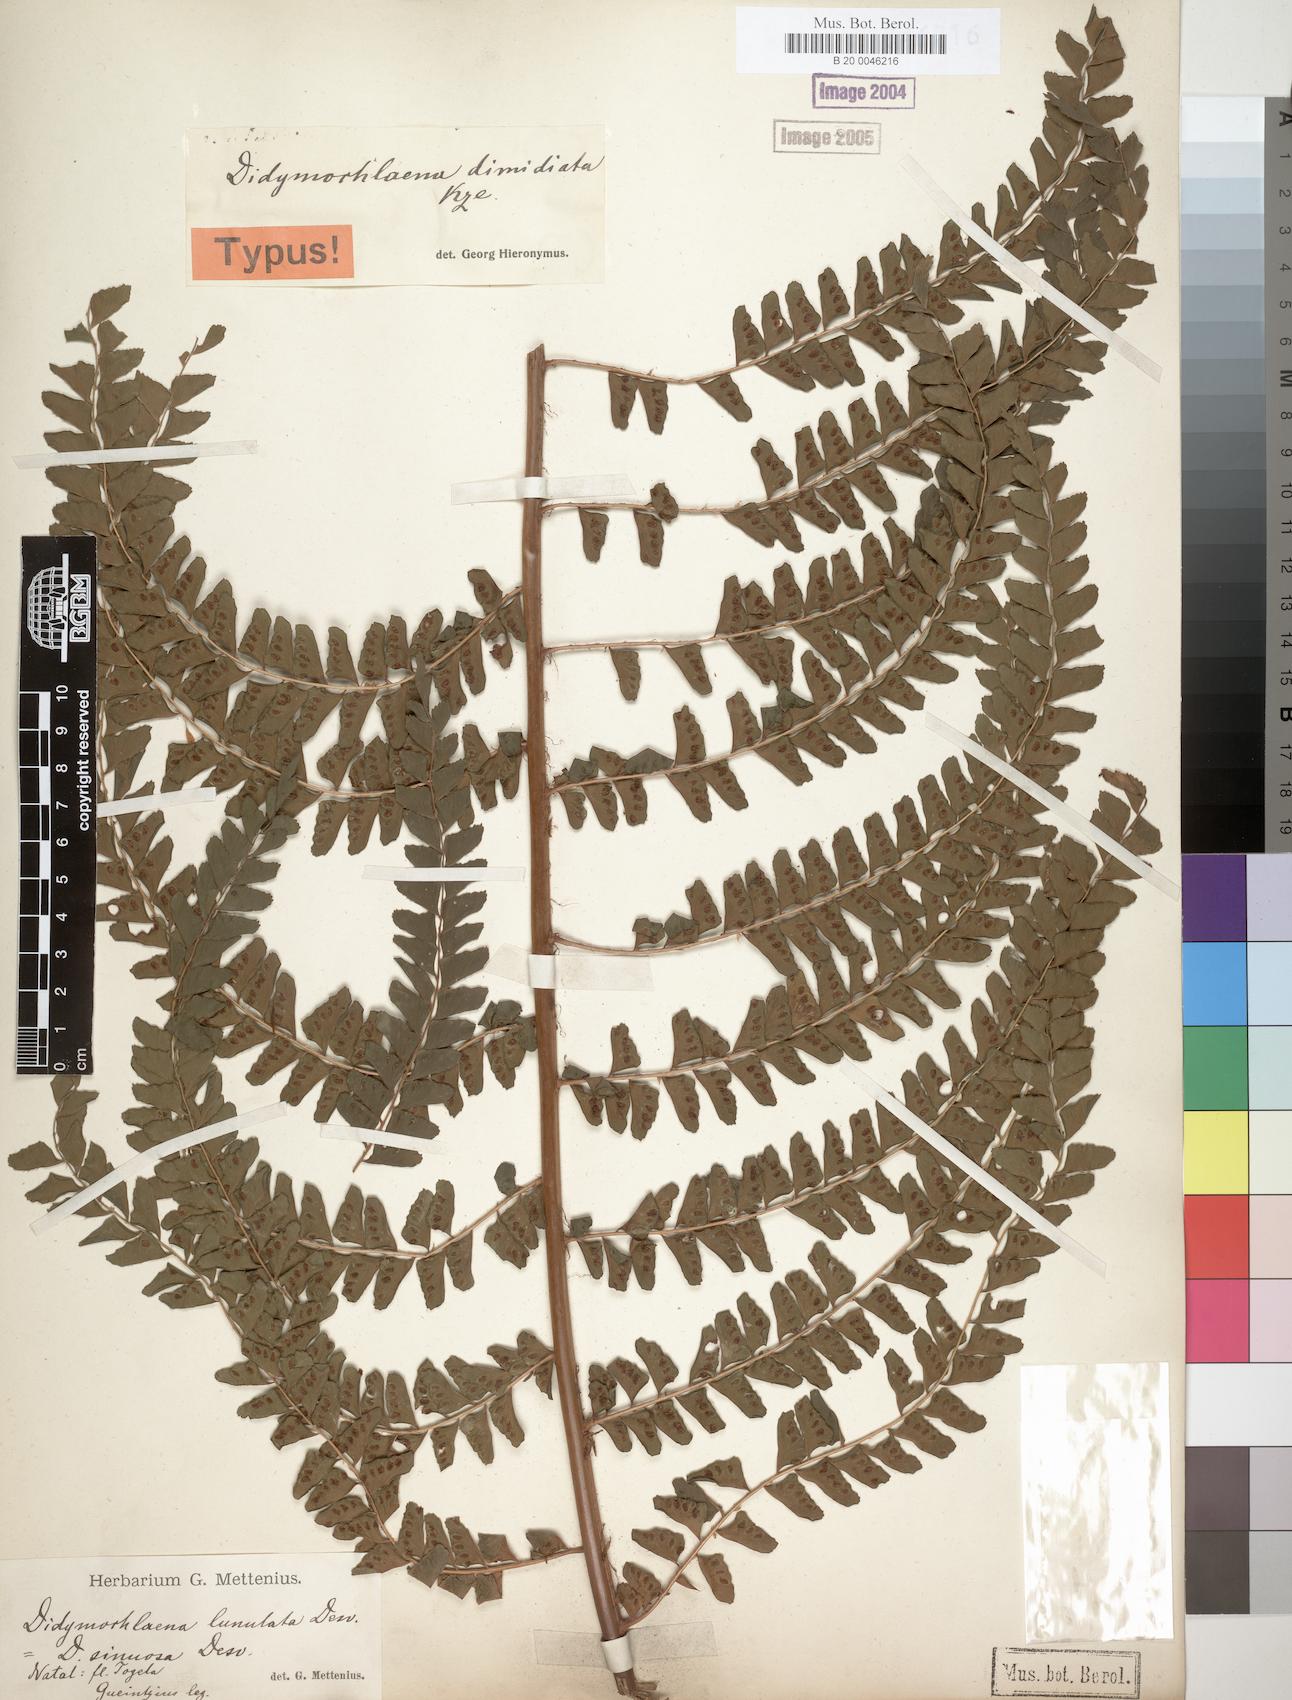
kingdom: Plantae
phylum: Tracheophyta
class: Polypodiopsida
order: Polypodiales
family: Didymochlaenaceae
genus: Didymochlaena
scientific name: Didymochlaena truncatula
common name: Mahogany fern
